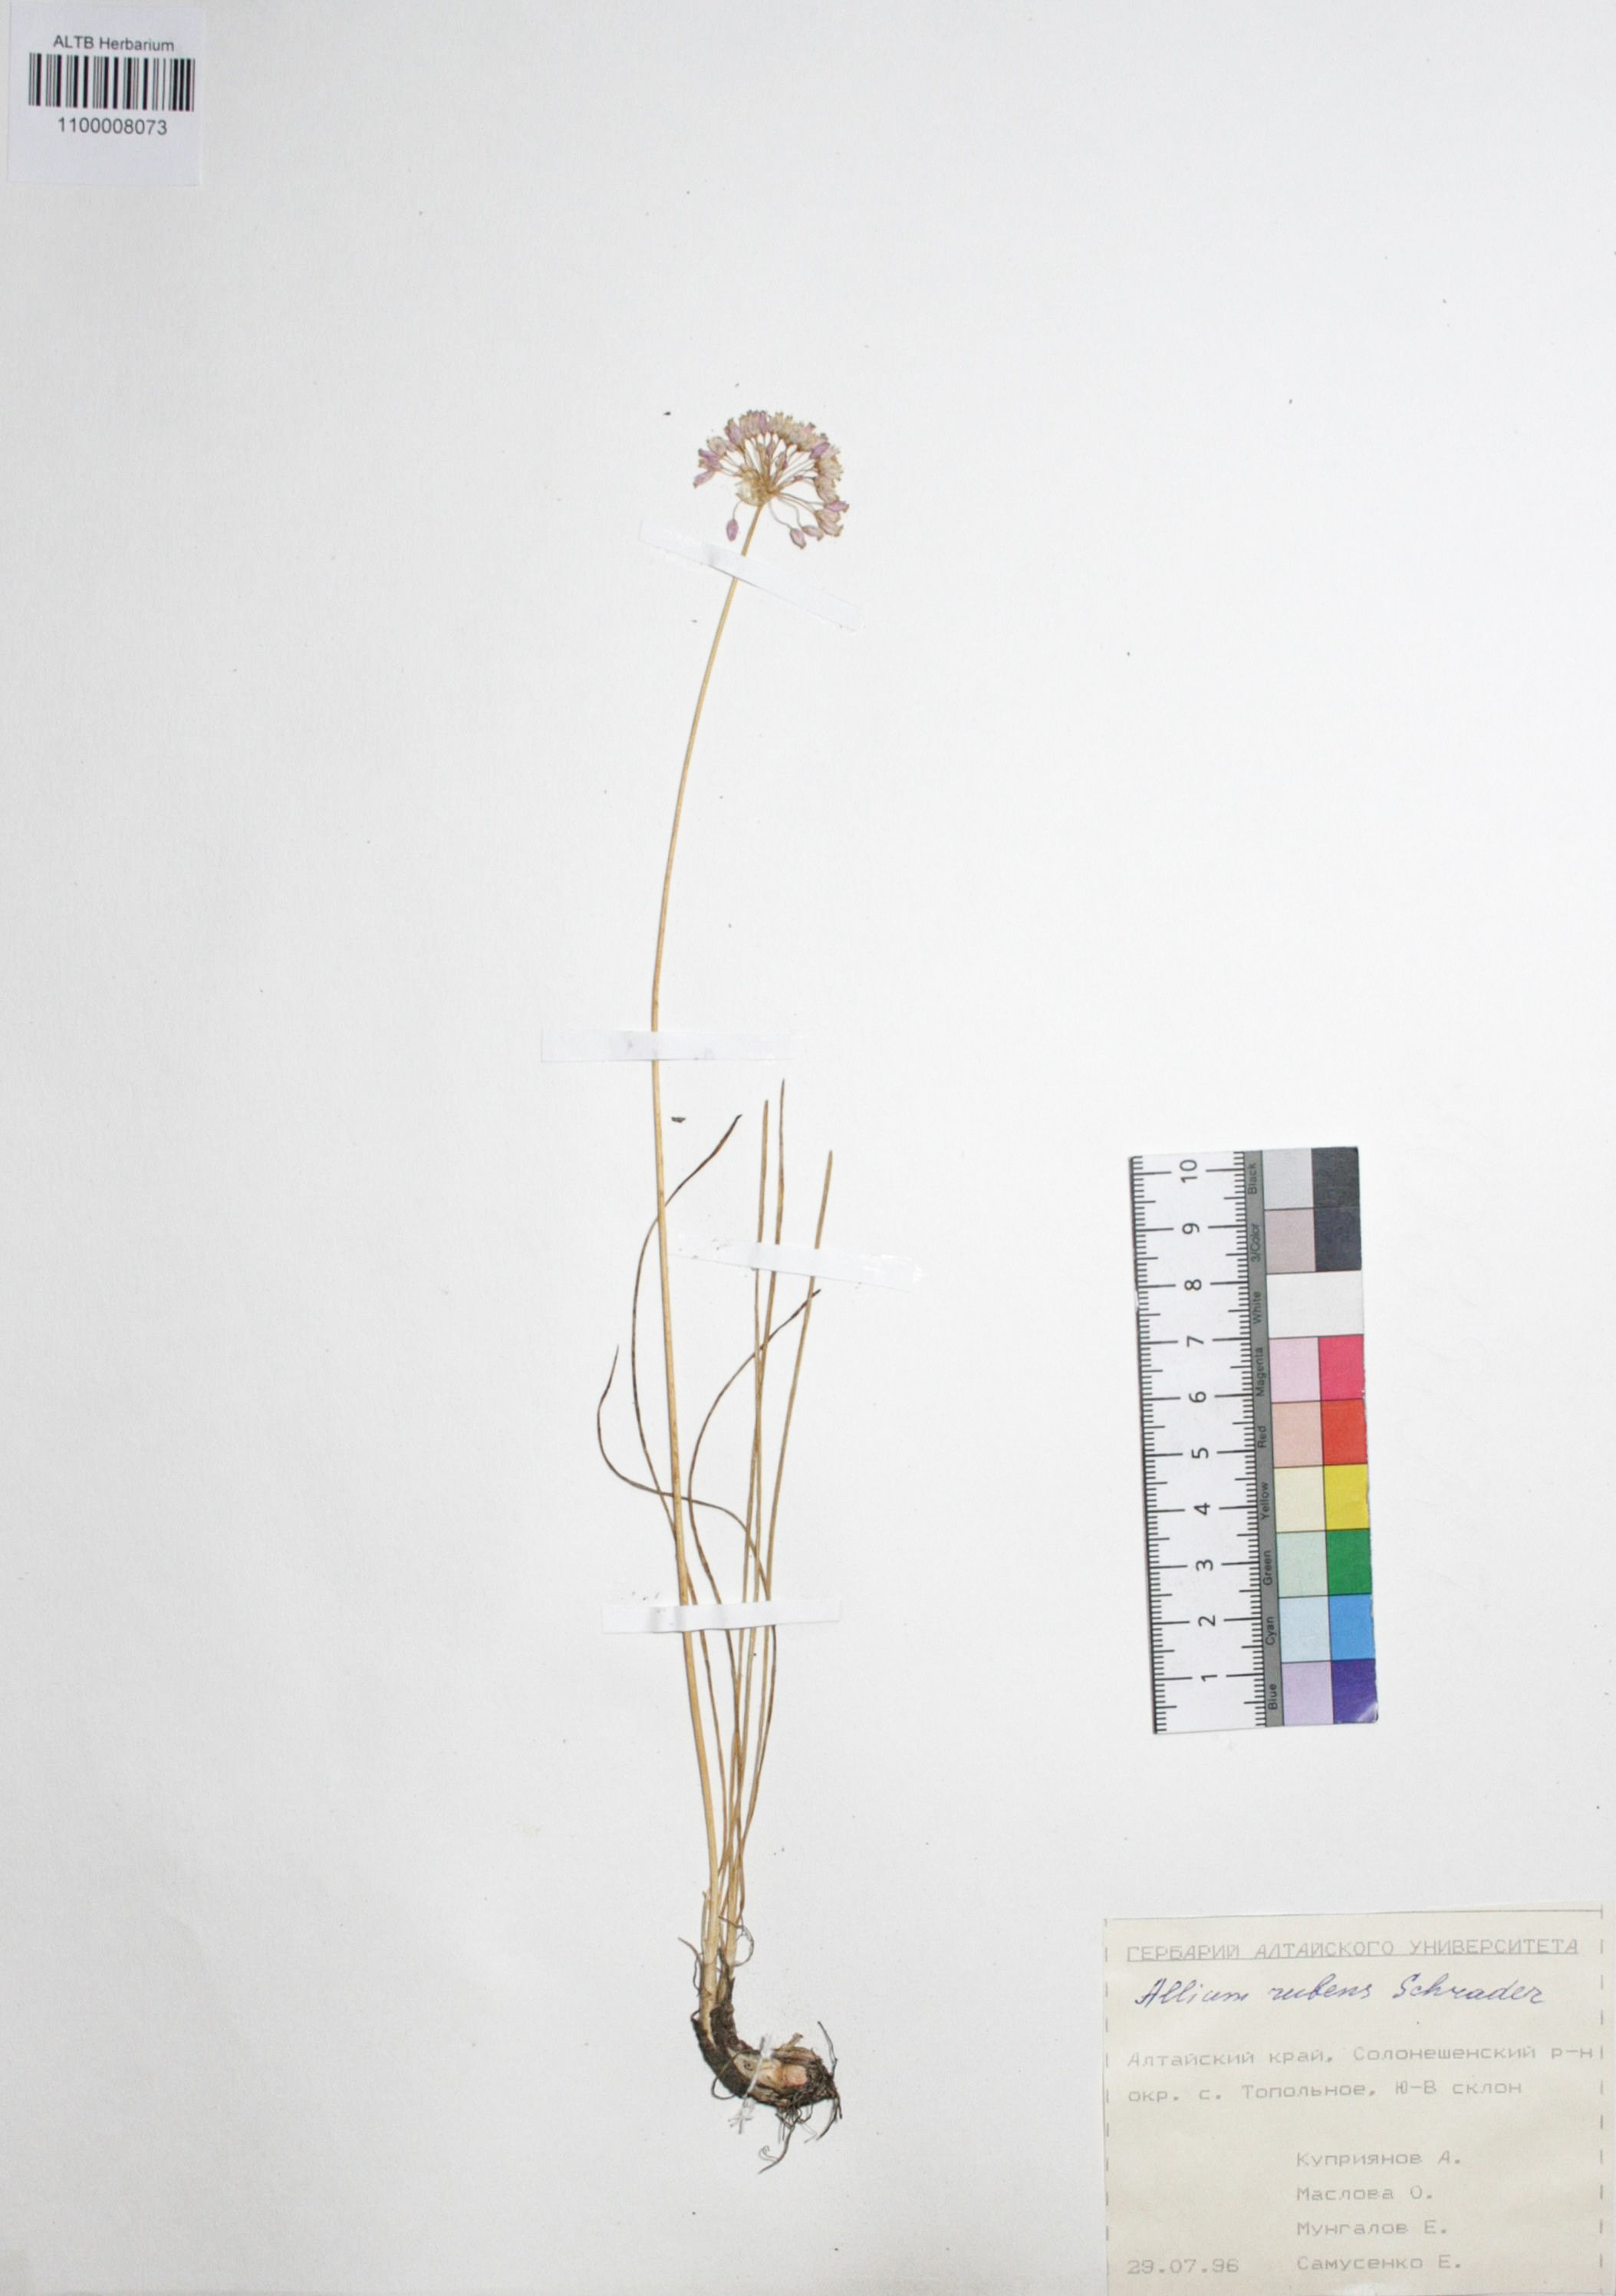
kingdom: Plantae
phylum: Tracheophyta
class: Liliopsida
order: Asparagales
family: Amaryllidaceae
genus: Allium
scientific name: Allium rubens
